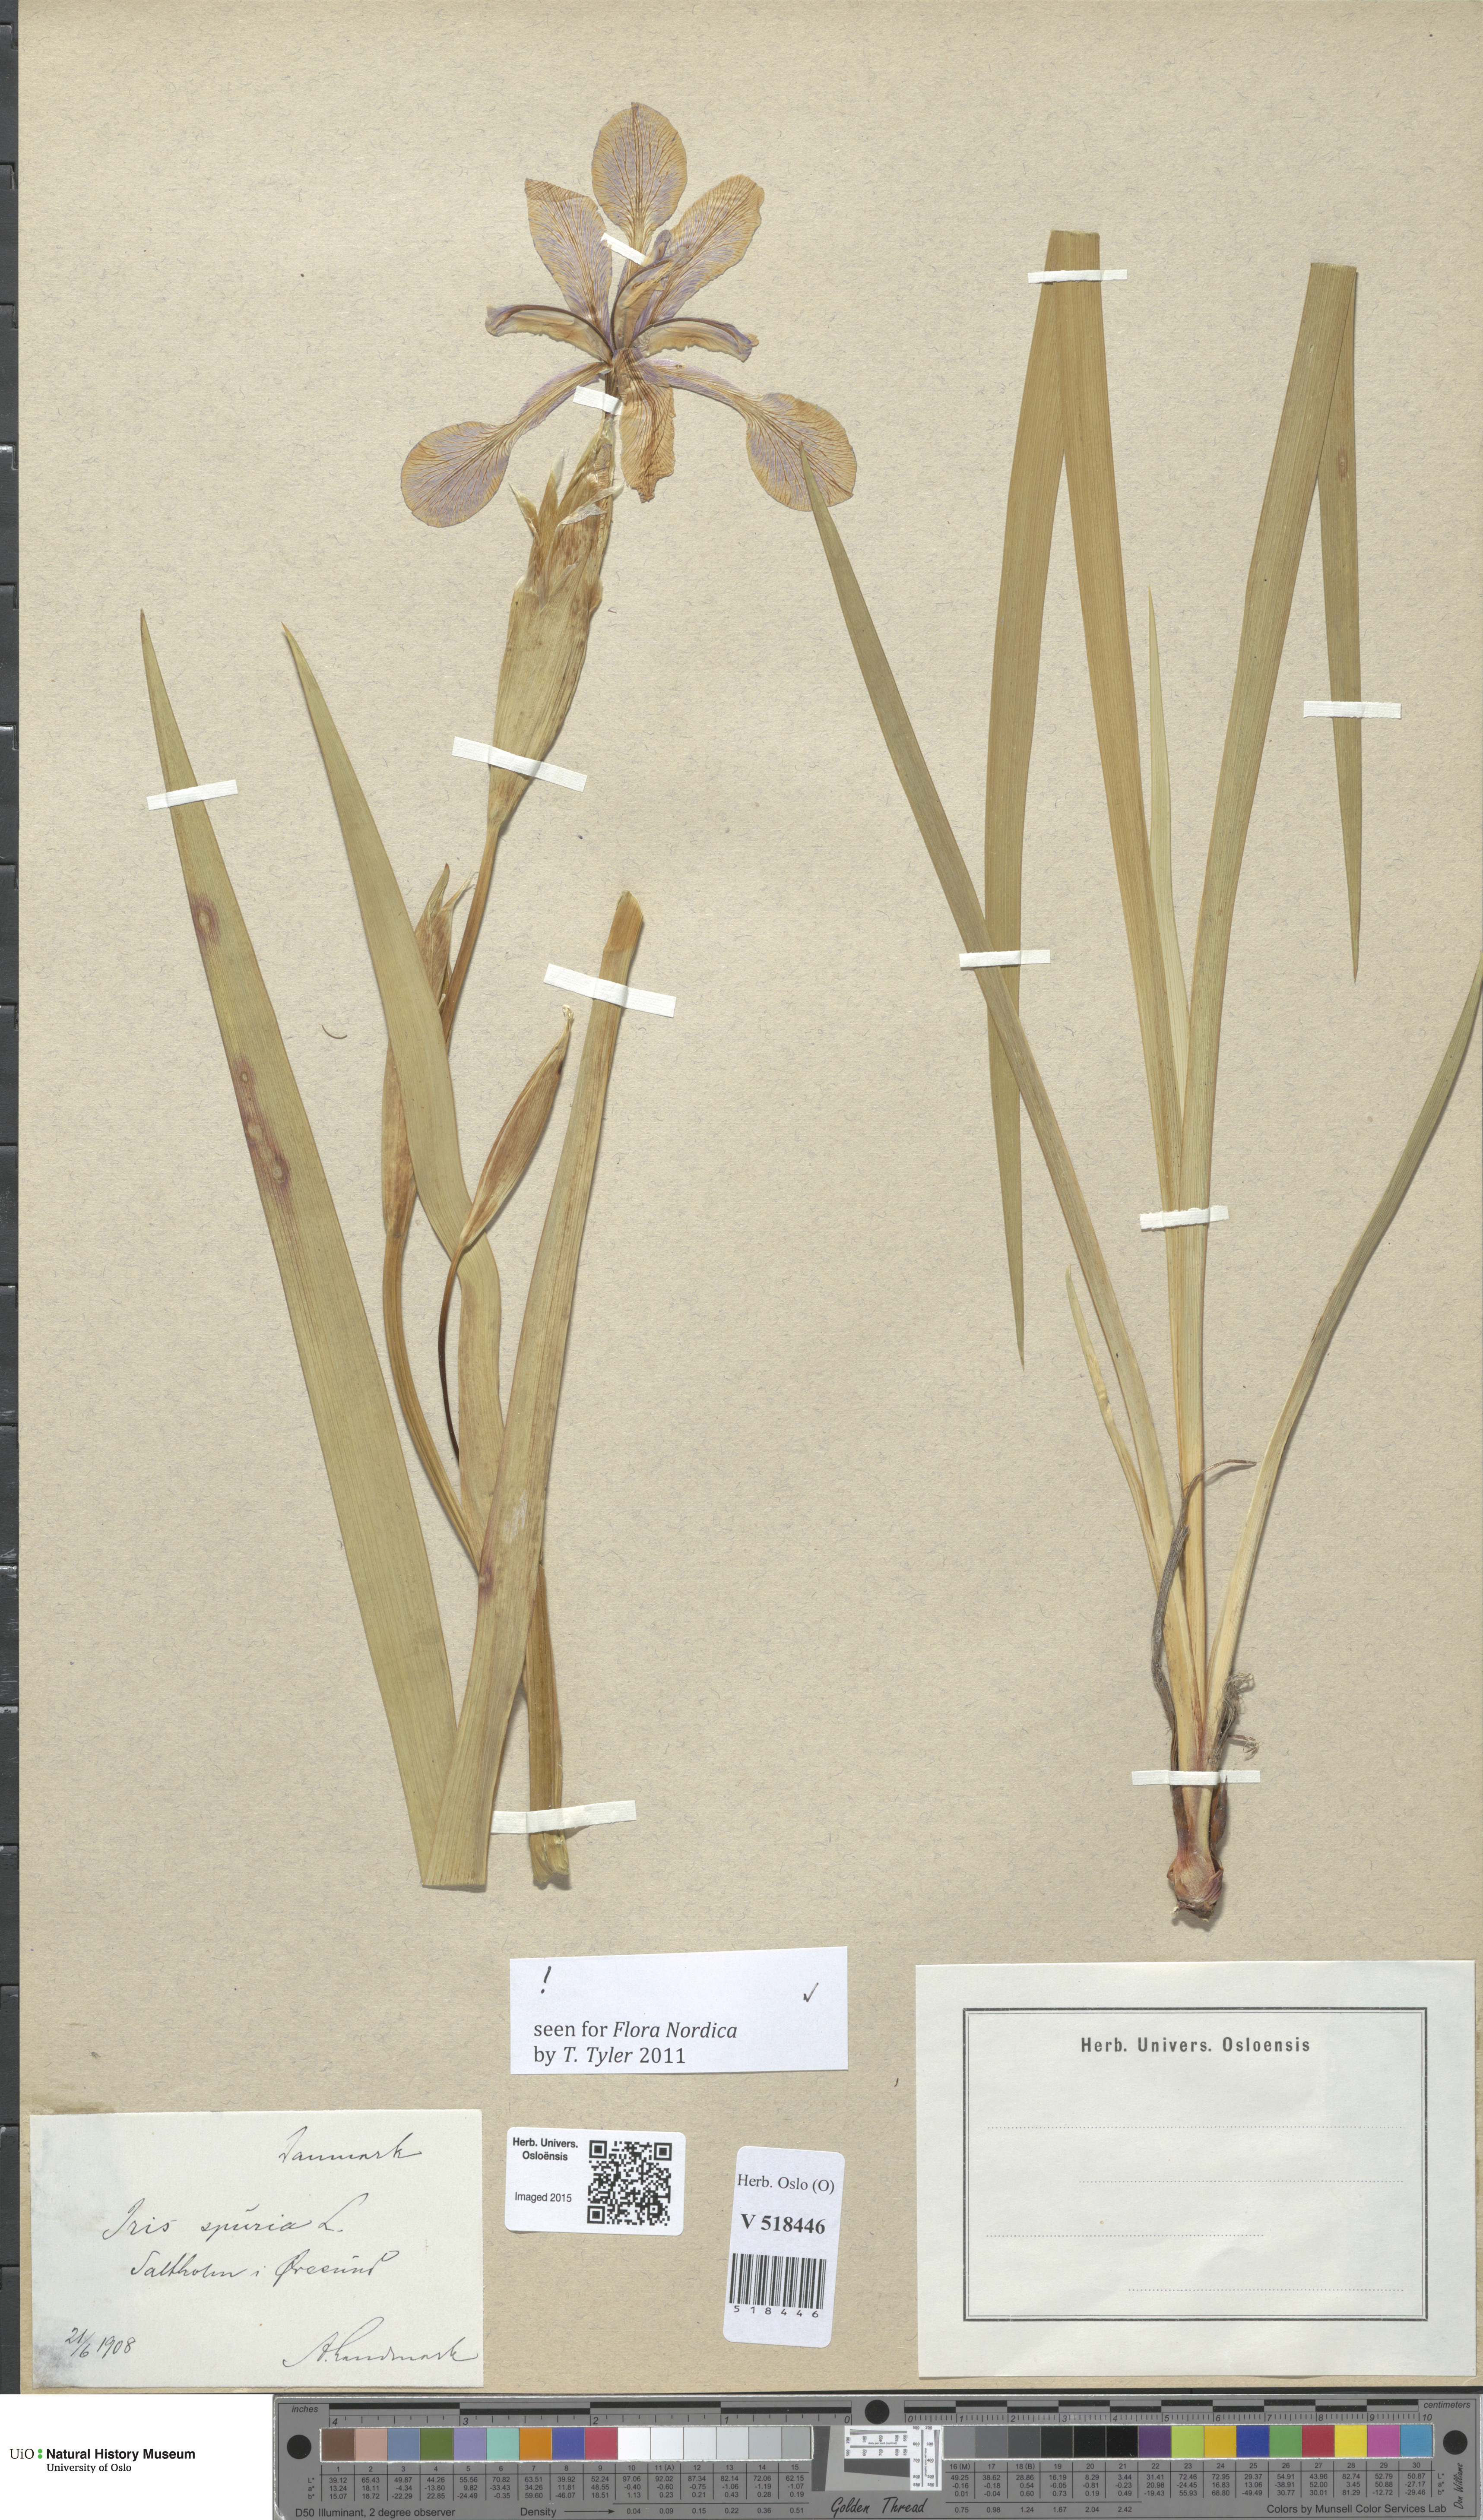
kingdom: Plantae
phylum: Tracheophyta
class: Liliopsida
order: Asparagales
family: Iridaceae
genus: Iris
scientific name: Iris spuria
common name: Blue iris
